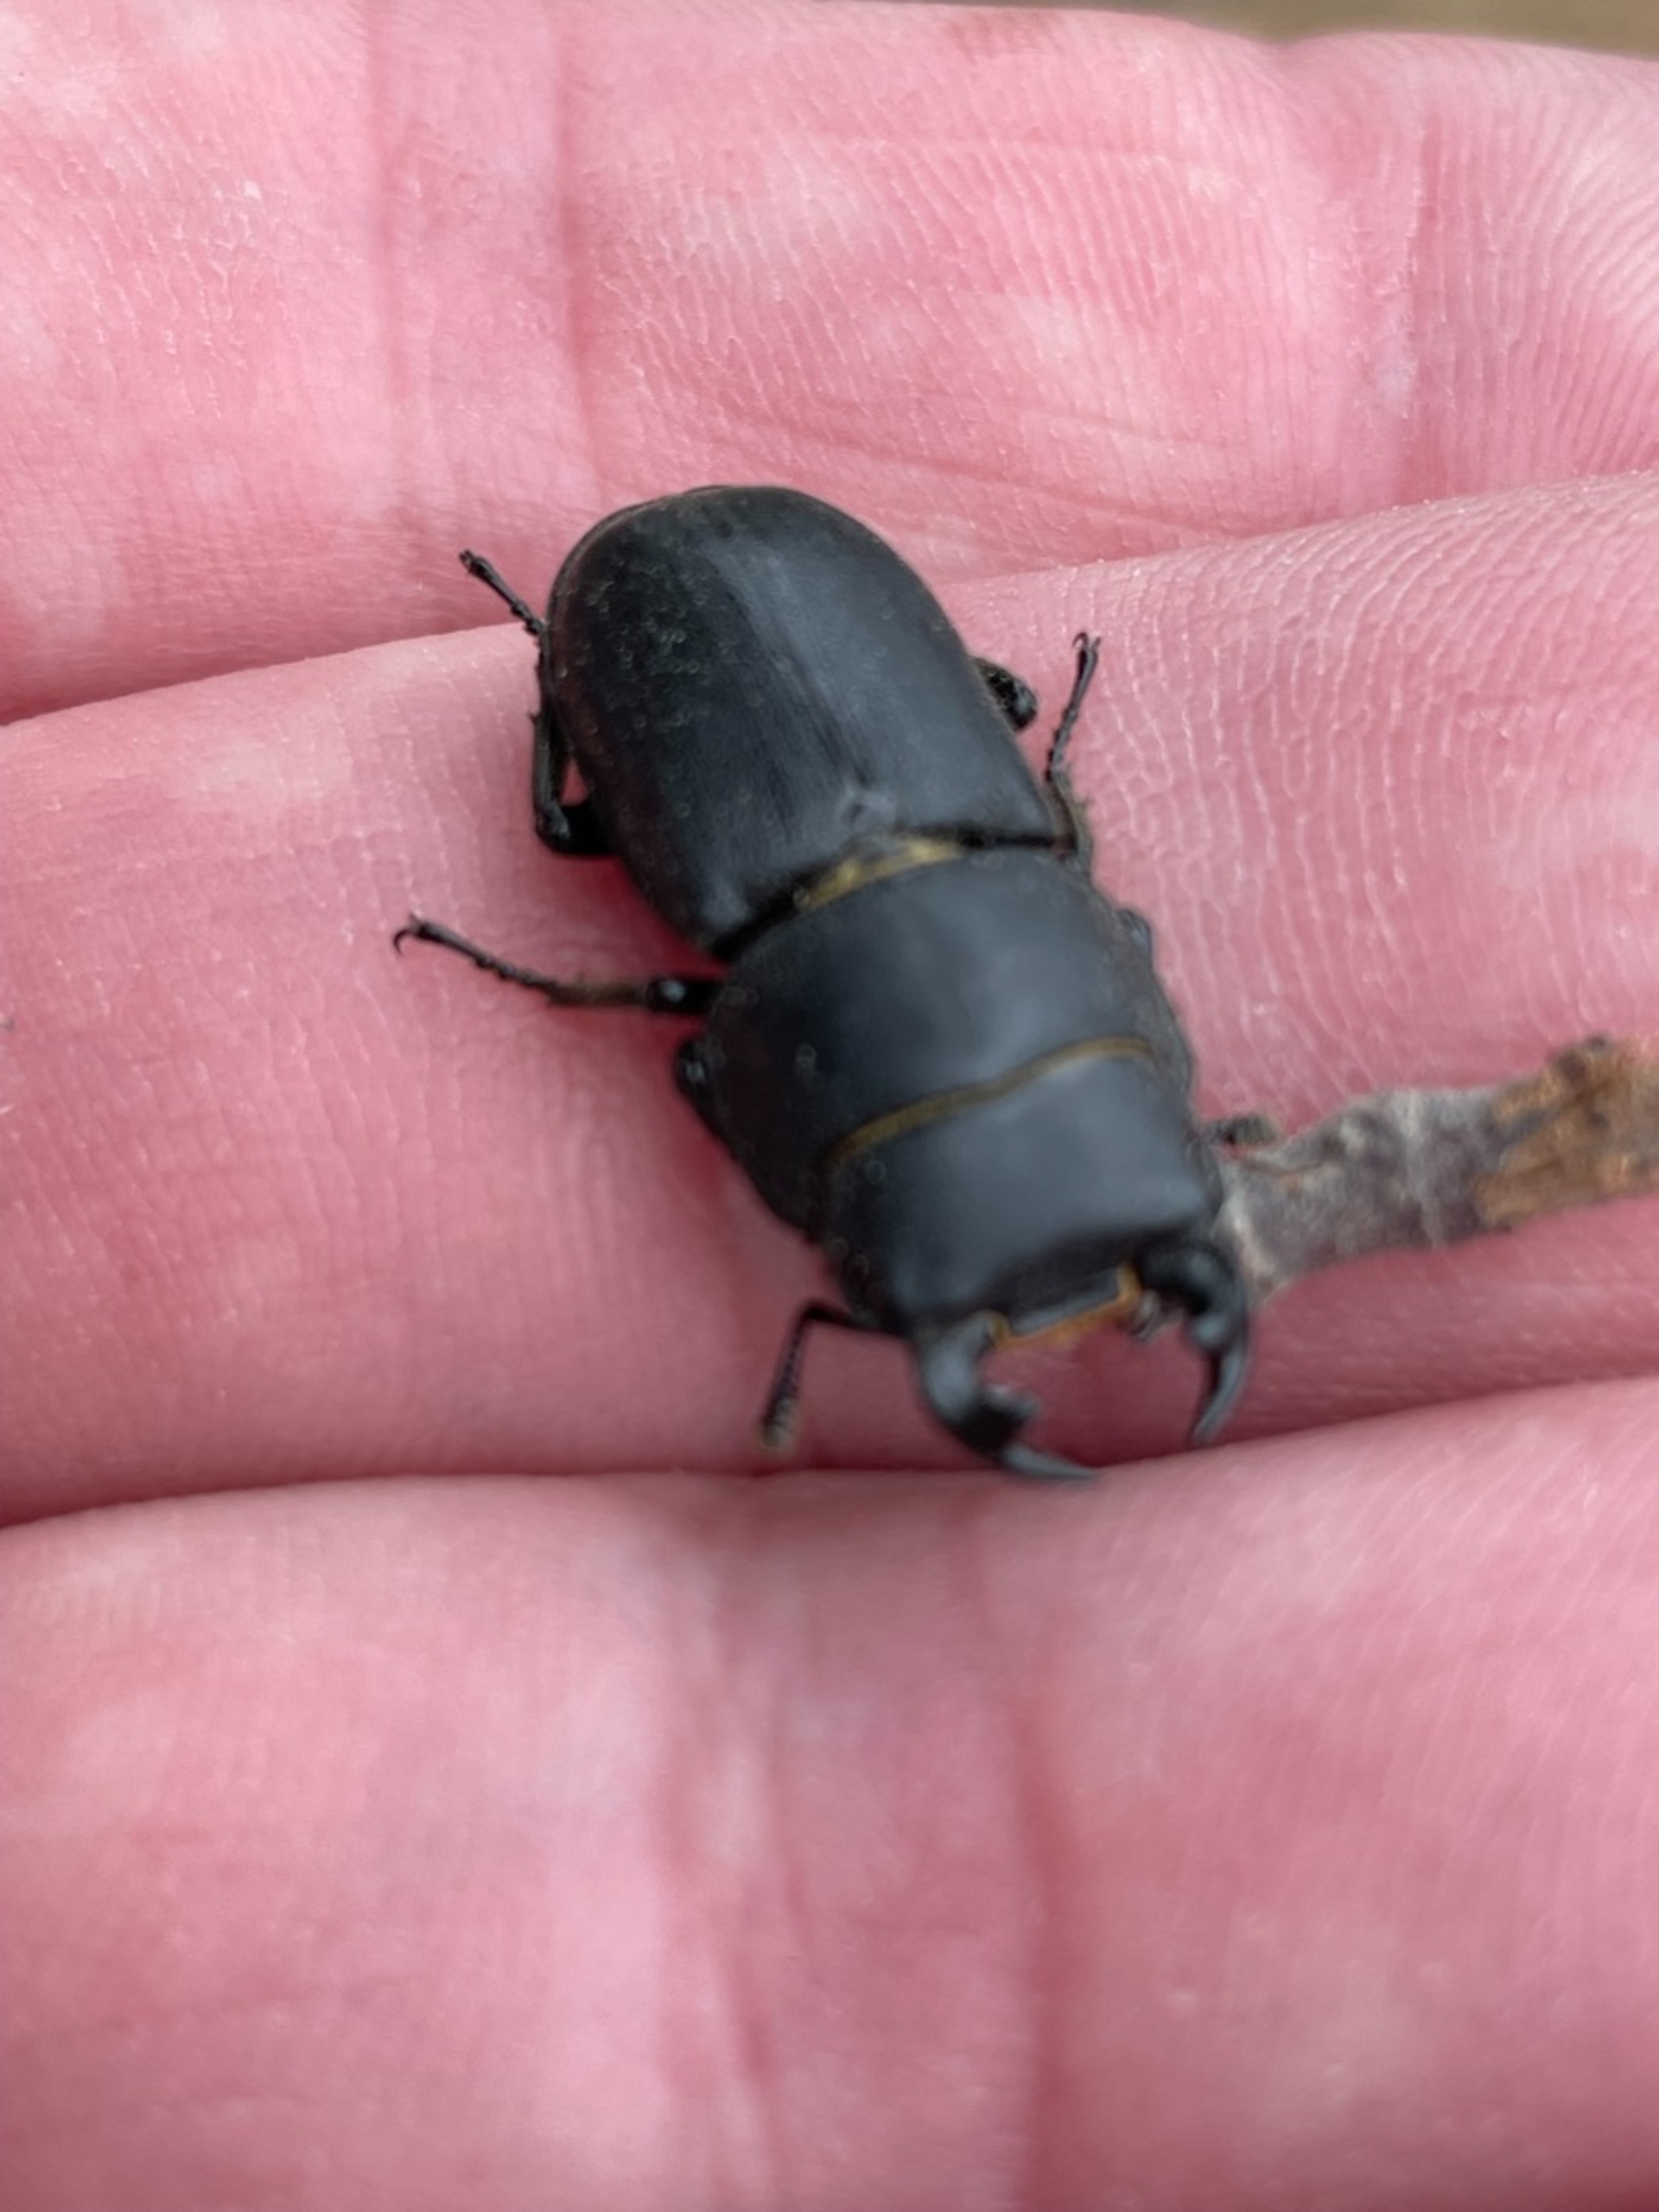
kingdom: Animalia
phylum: Arthropoda
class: Insecta
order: Coleoptera
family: Lucanidae
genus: Dorcus
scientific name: Dorcus parallelipipedus
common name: Bøghjort
